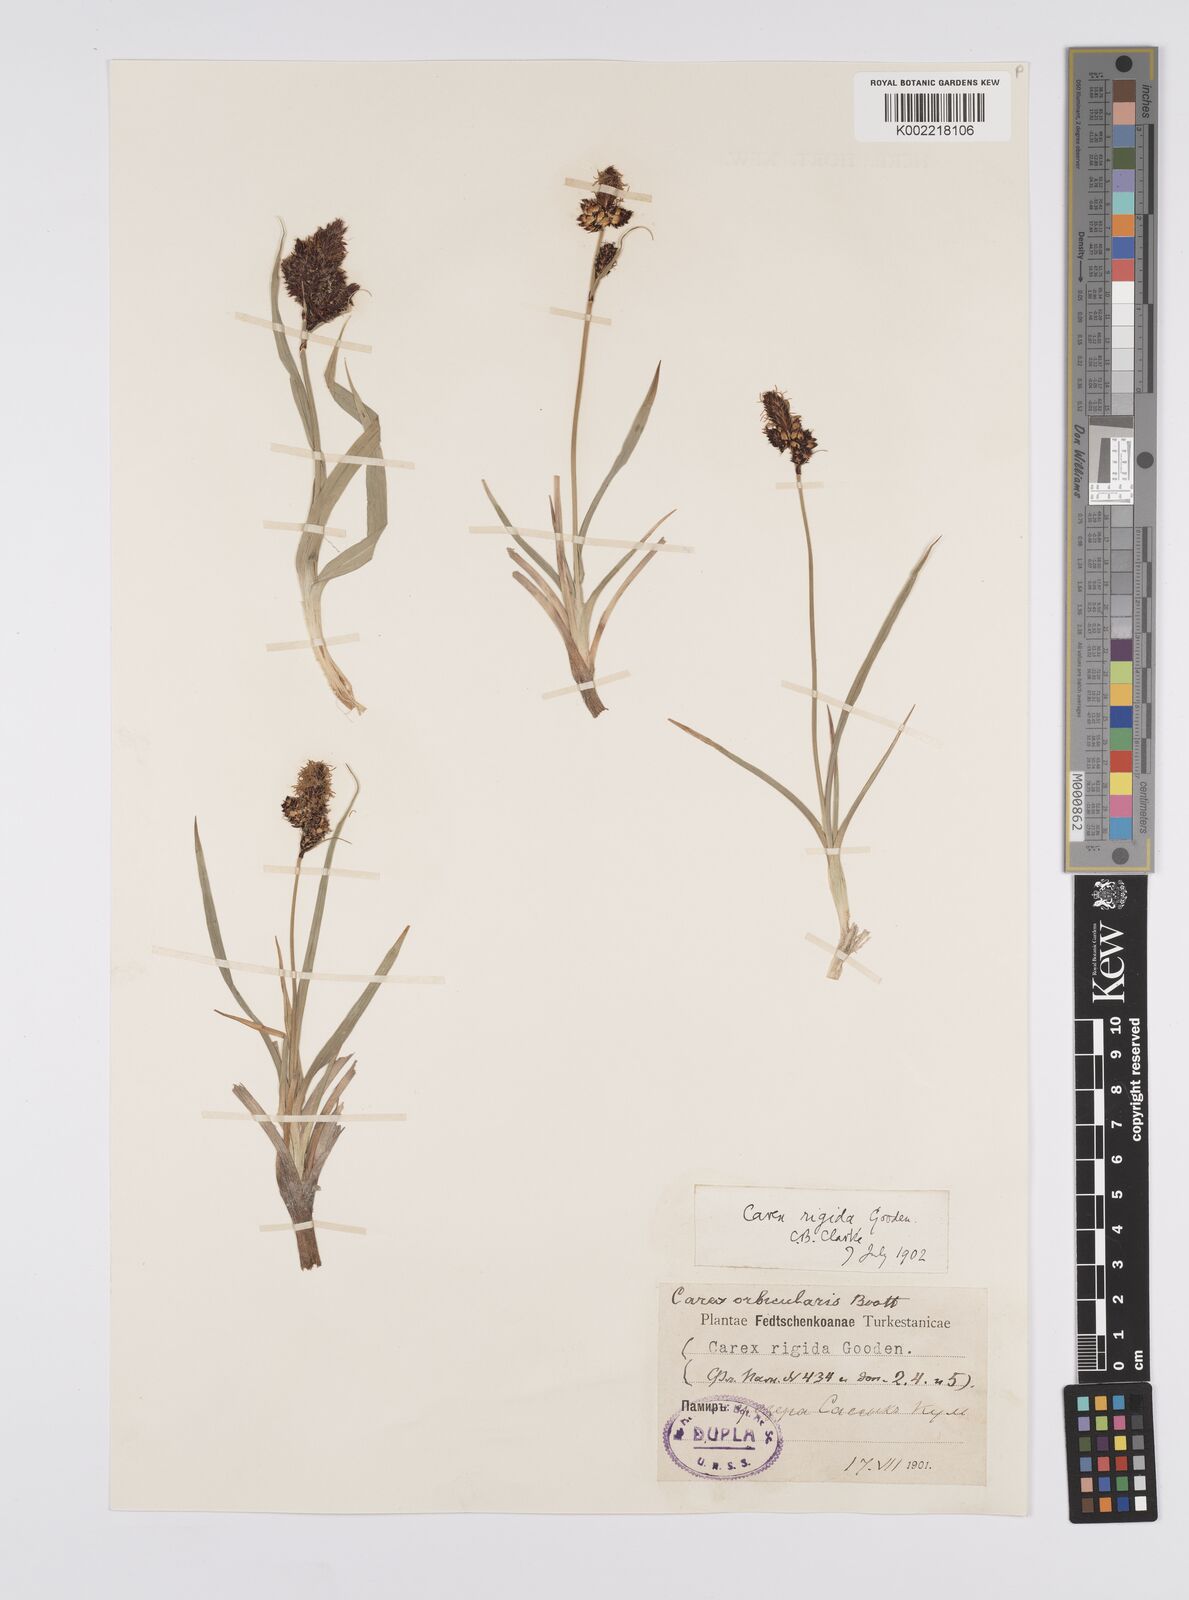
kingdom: Plantae
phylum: Tracheophyta
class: Liliopsida
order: Poales
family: Cyperaceae
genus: Carex
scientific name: Carex orbicularis
